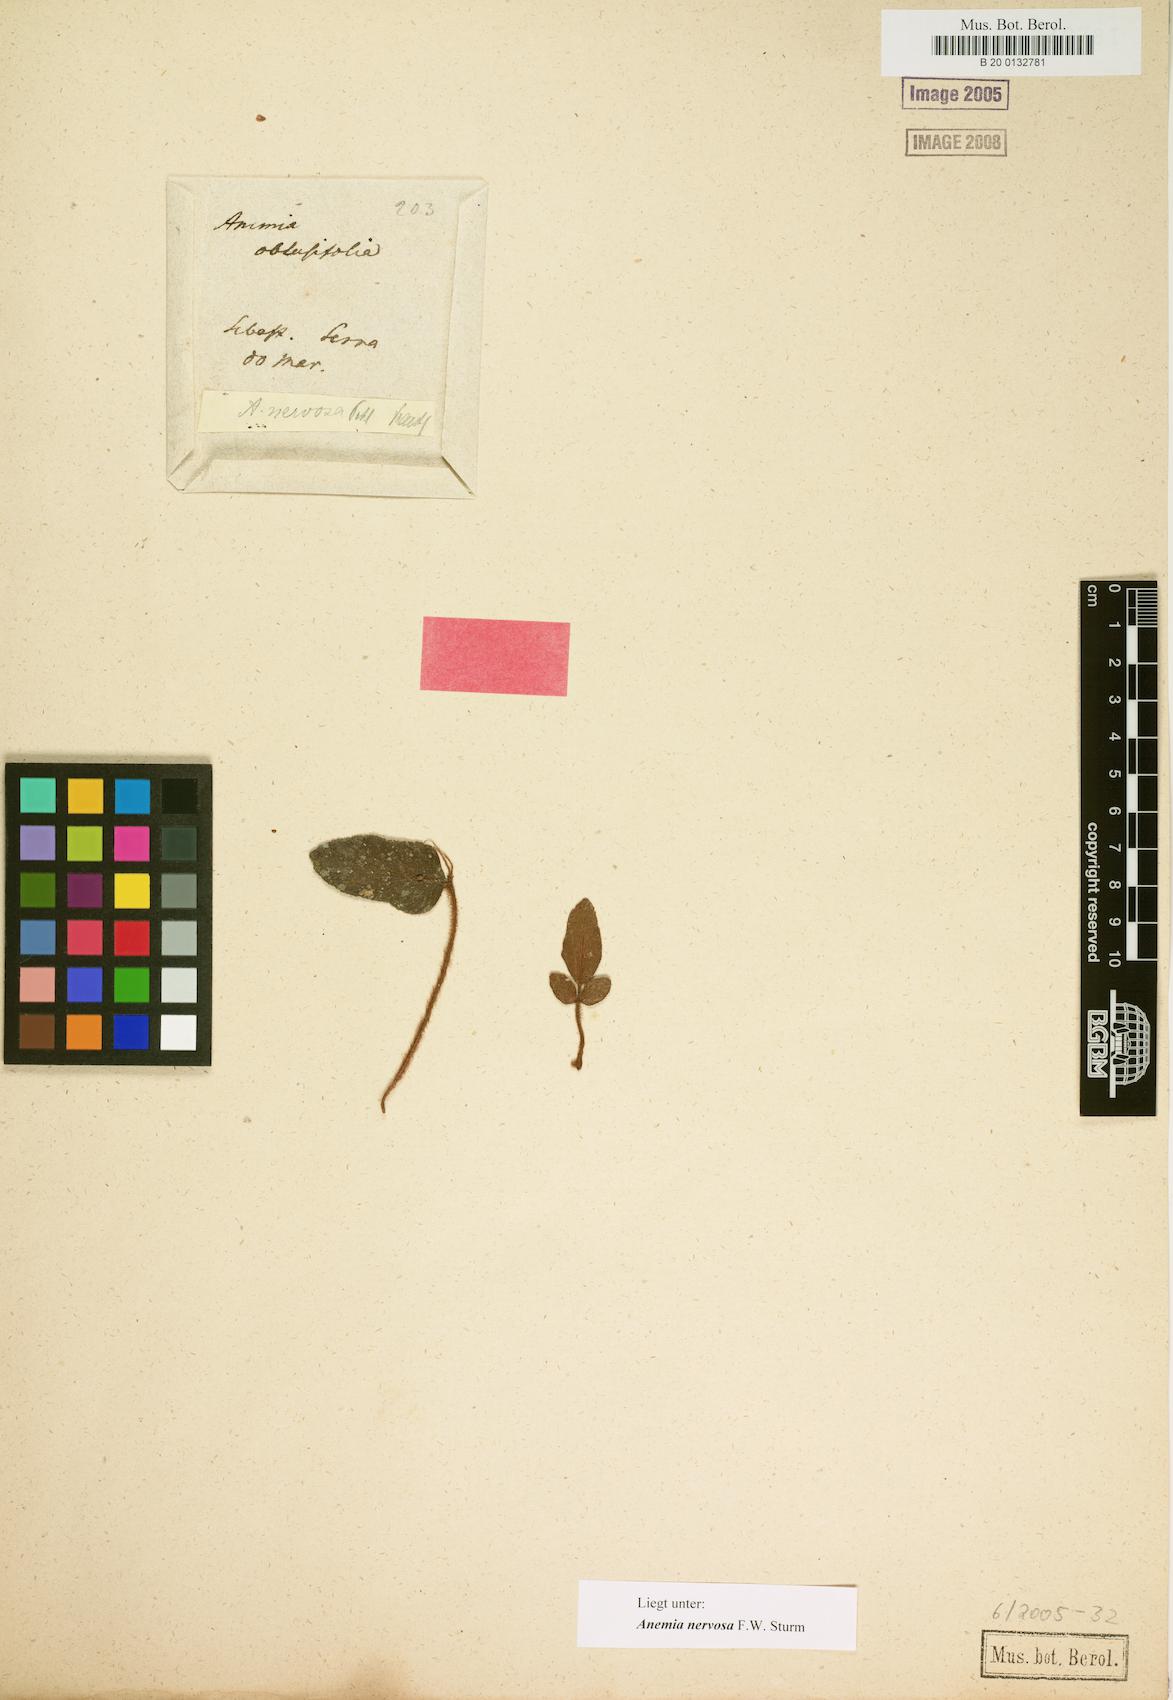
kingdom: Plantae
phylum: Tracheophyta
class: Polypodiopsida
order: Schizaeales
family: Anemiaceae
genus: Anemia
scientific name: Anemia nervosa
